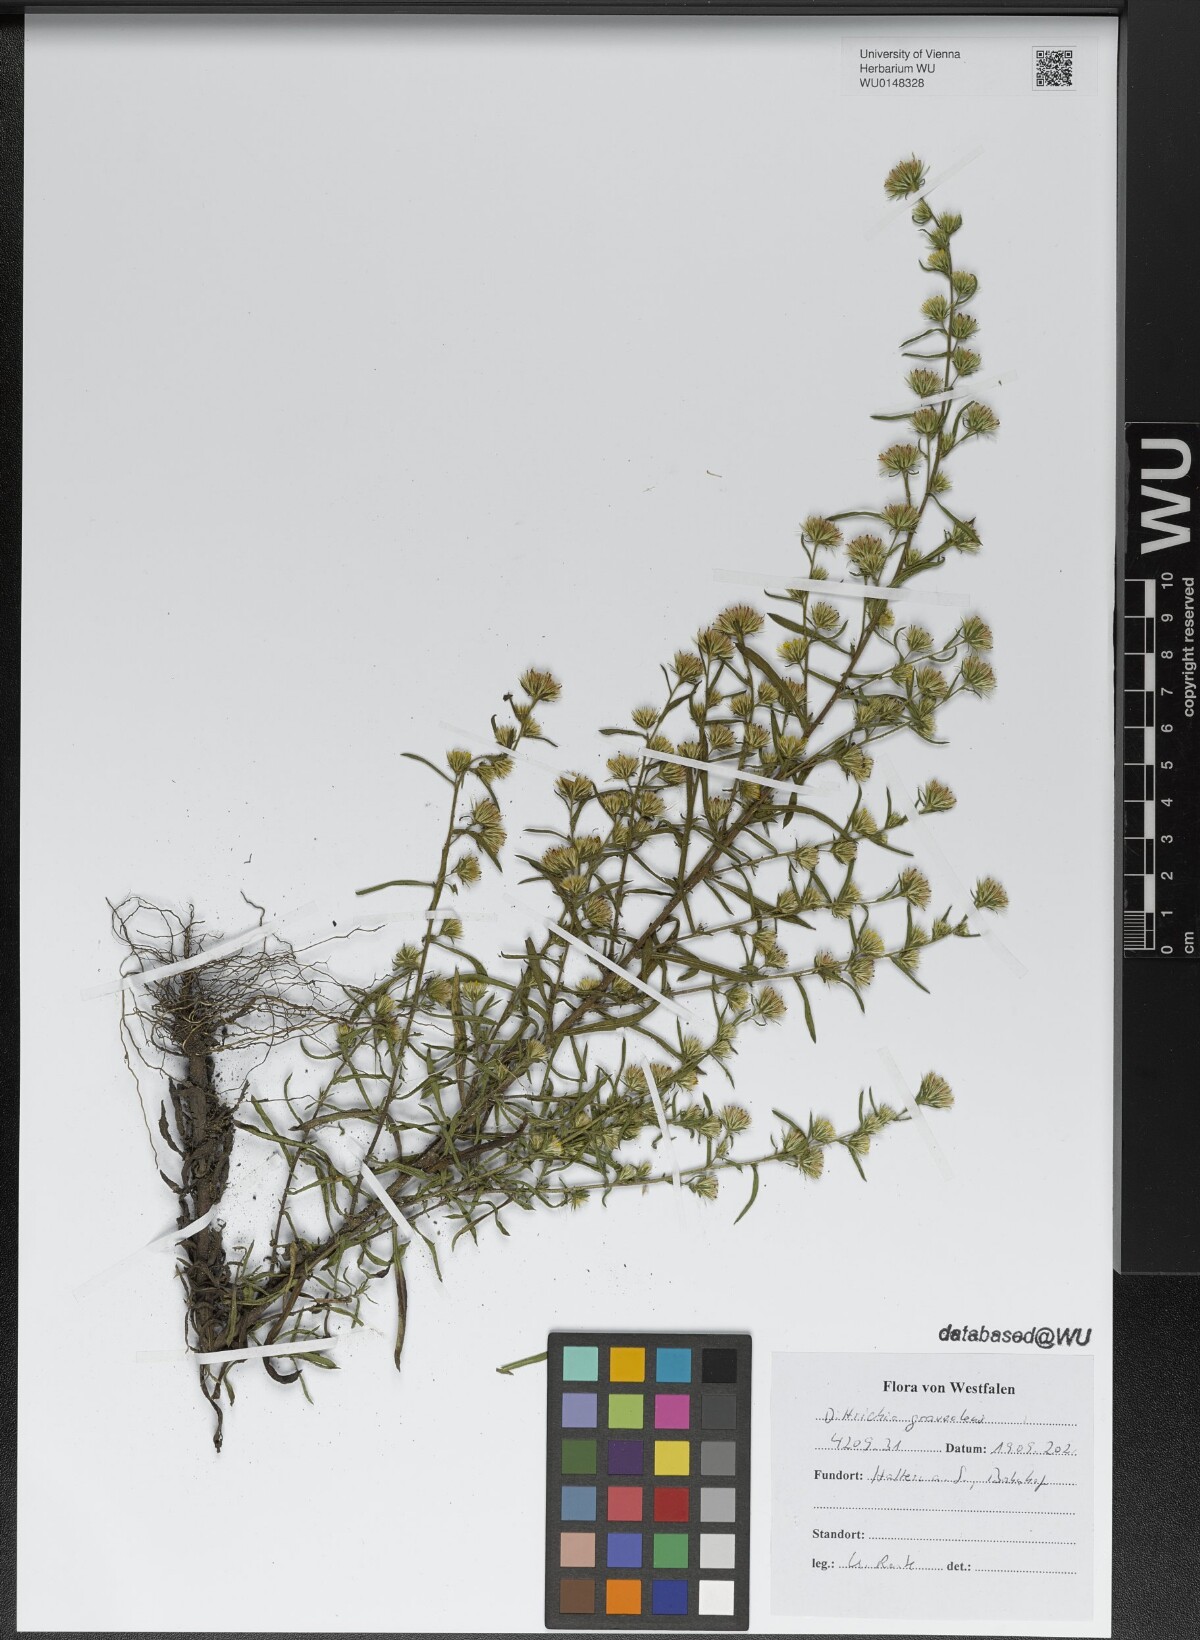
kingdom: Plantae
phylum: Tracheophyta
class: Magnoliopsida
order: Asterales
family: Asteraceae
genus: Dittrichia
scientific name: Dittrichia graveolens
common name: Stinking fleabane
